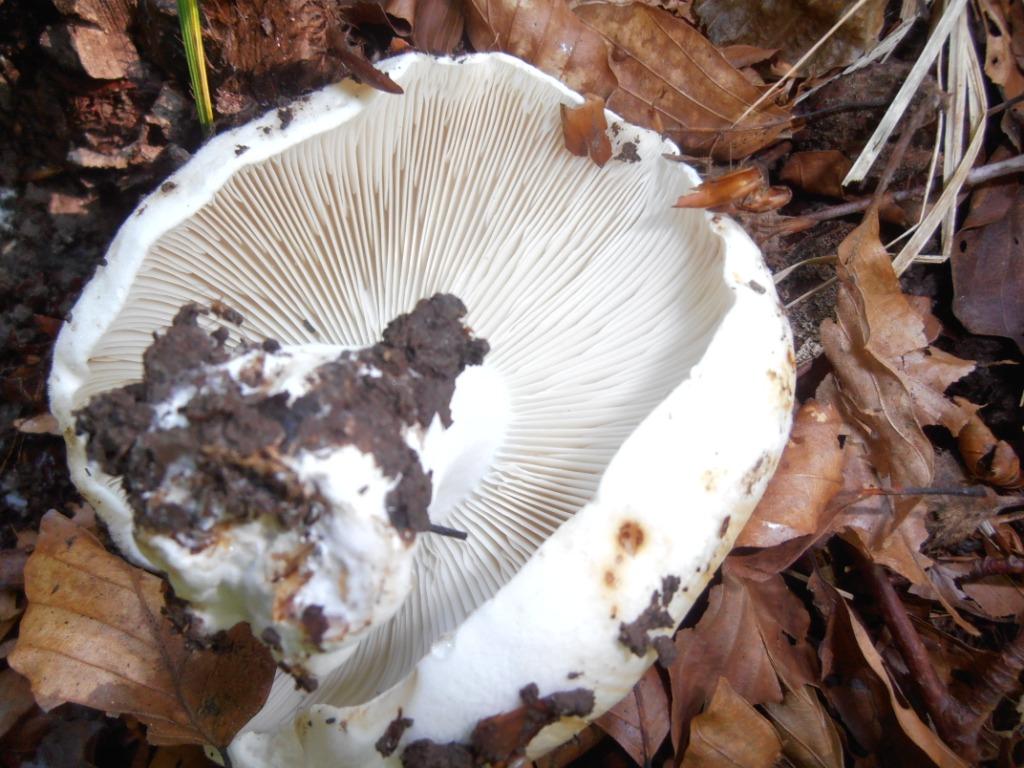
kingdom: Fungi
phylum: Basidiomycota
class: Agaricomycetes
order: Russulales
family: Russulaceae
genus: Russula
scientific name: Russula chloroides
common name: grønhalset tragt-skørhat
